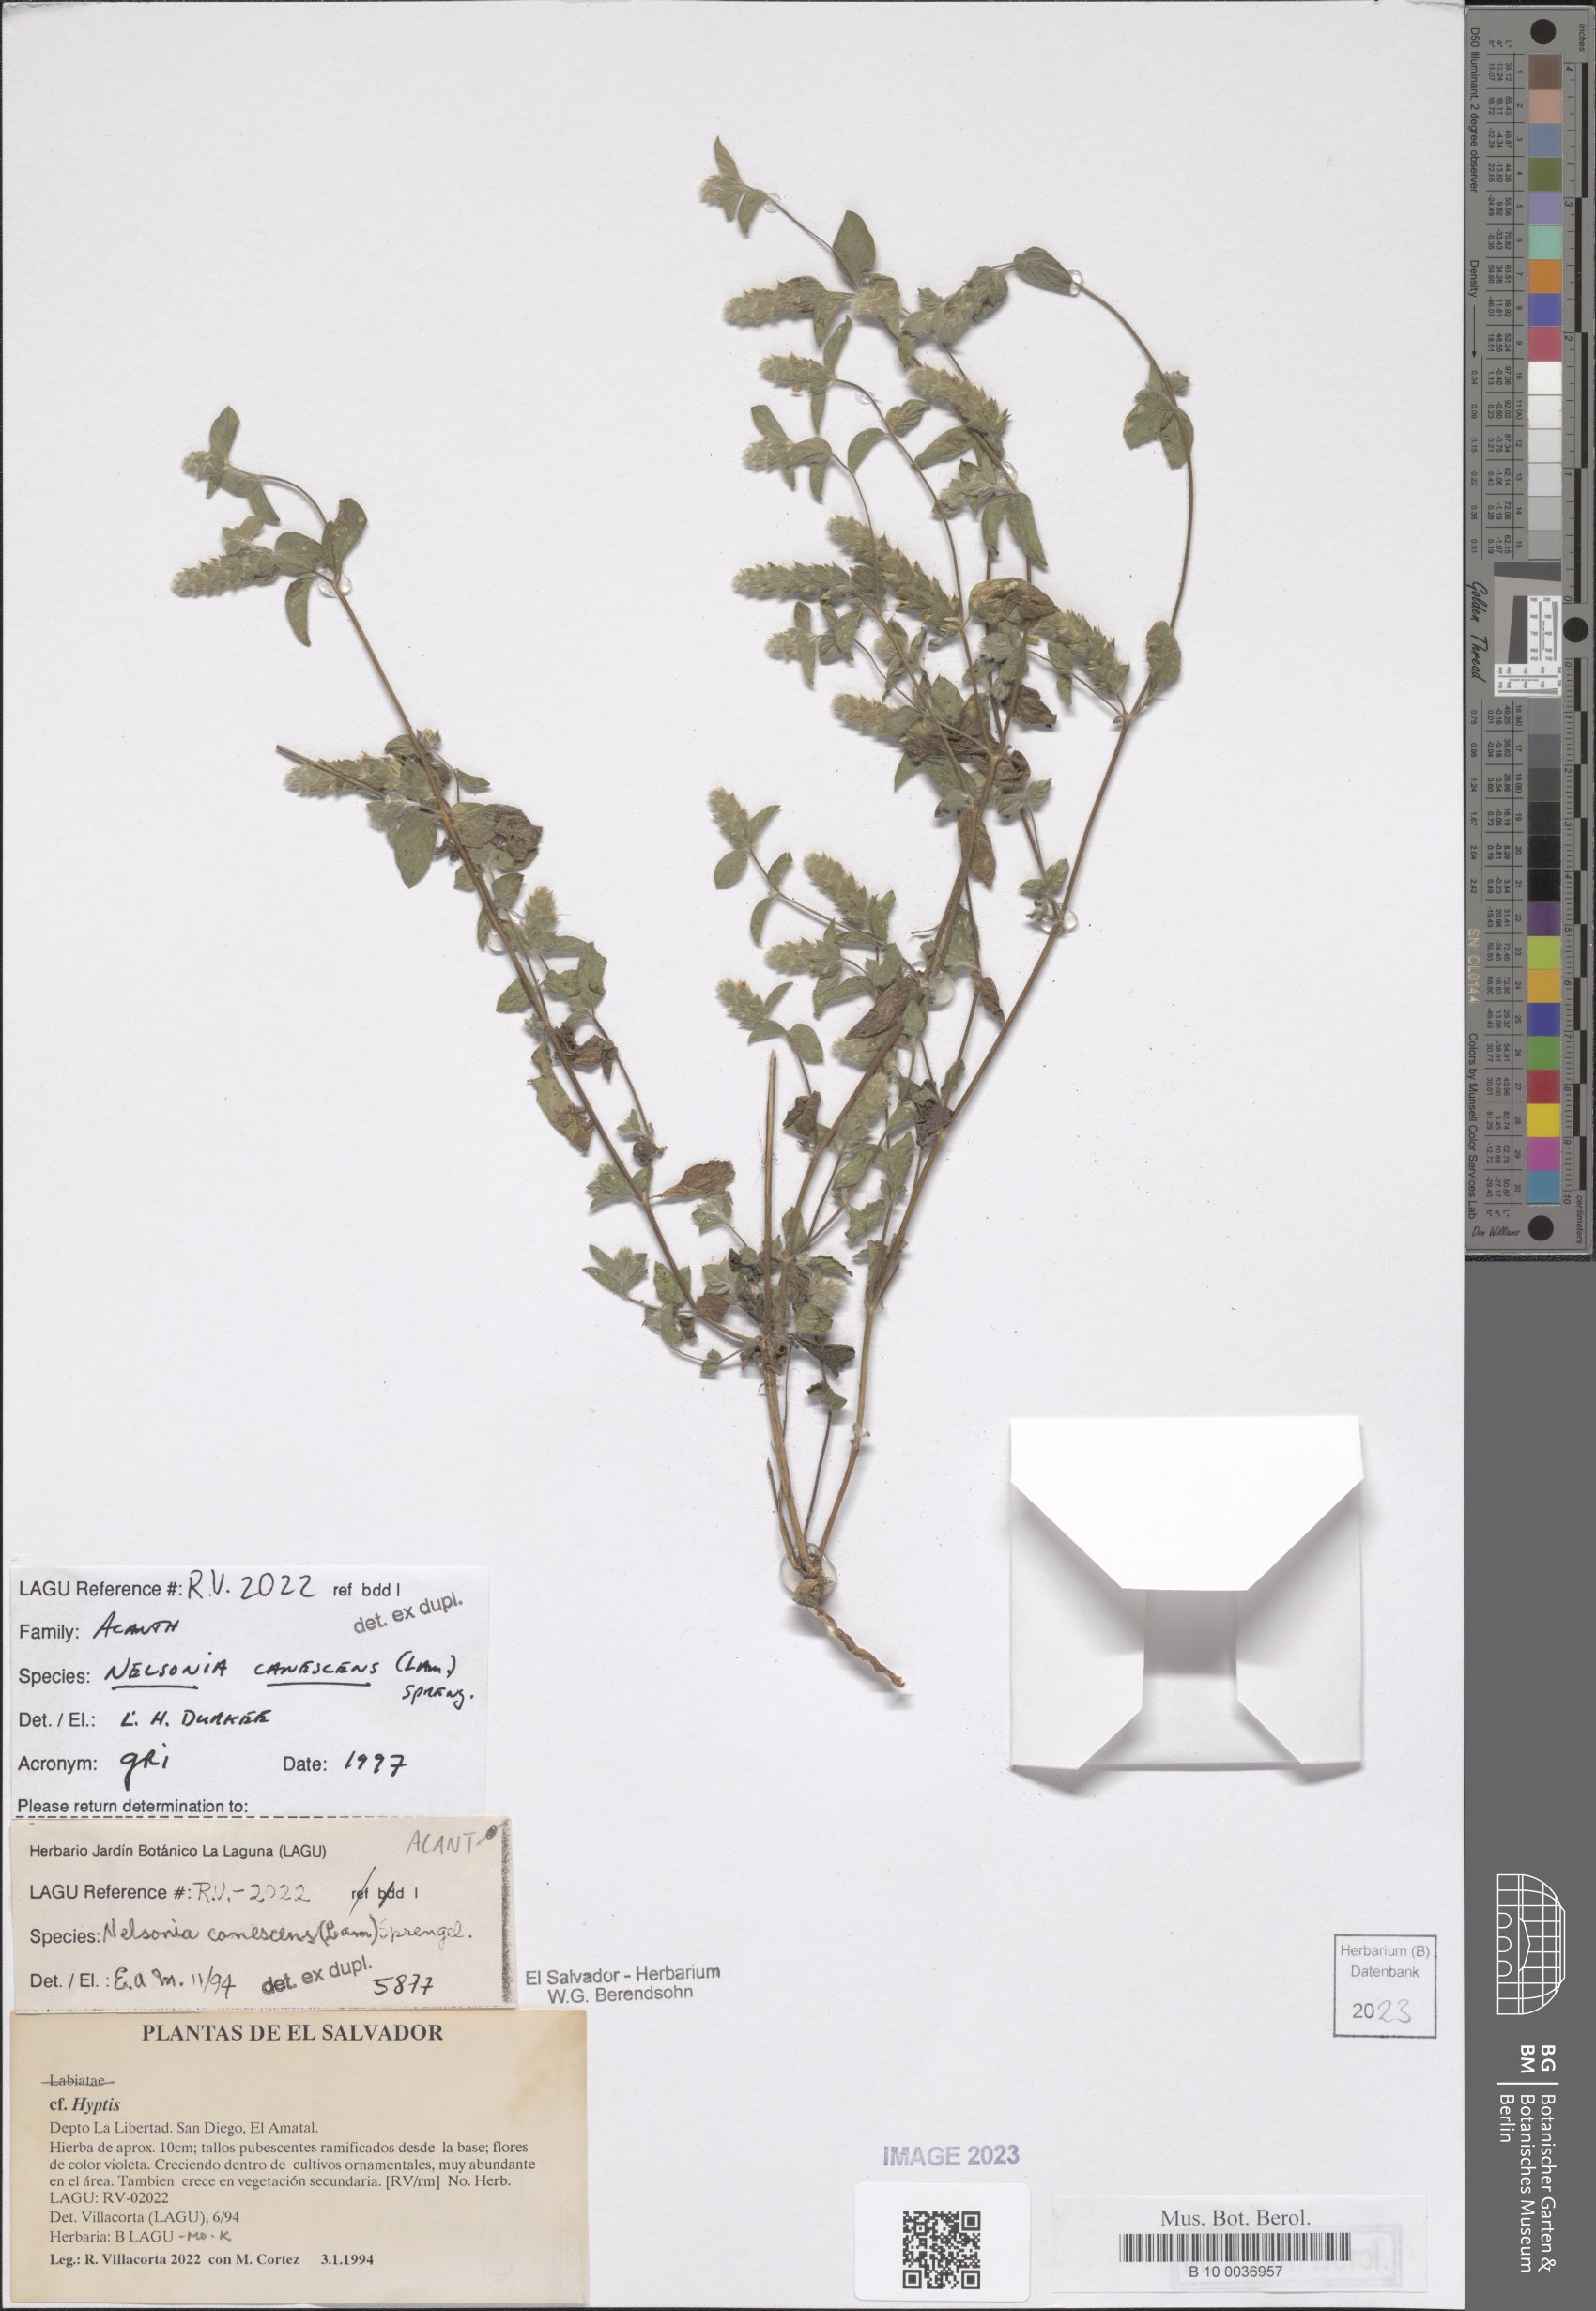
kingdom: Plantae
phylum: Tracheophyta
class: Magnoliopsida
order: Lamiales
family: Acanthaceae
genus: Nelsonia
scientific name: Nelsonia canescens
